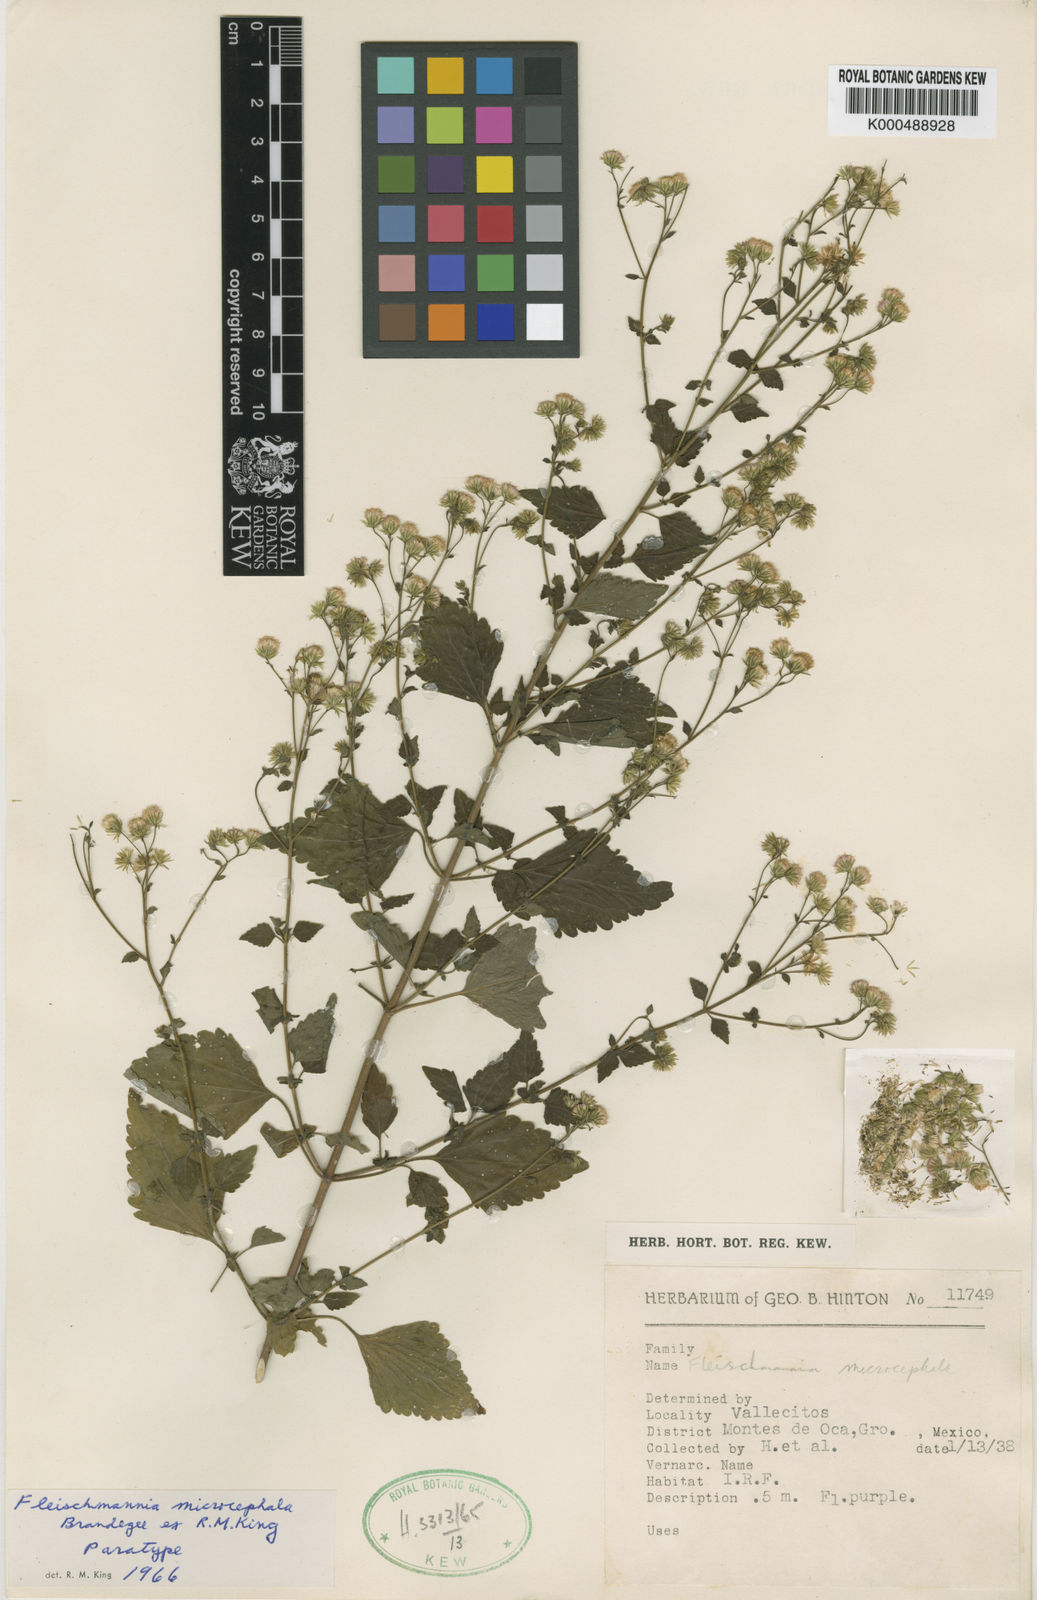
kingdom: Plantae
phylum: Tracheophyta
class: Magnoliopsida
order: Asterales
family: Asteraceae
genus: Fleischmannia
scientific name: Fleischmannia
